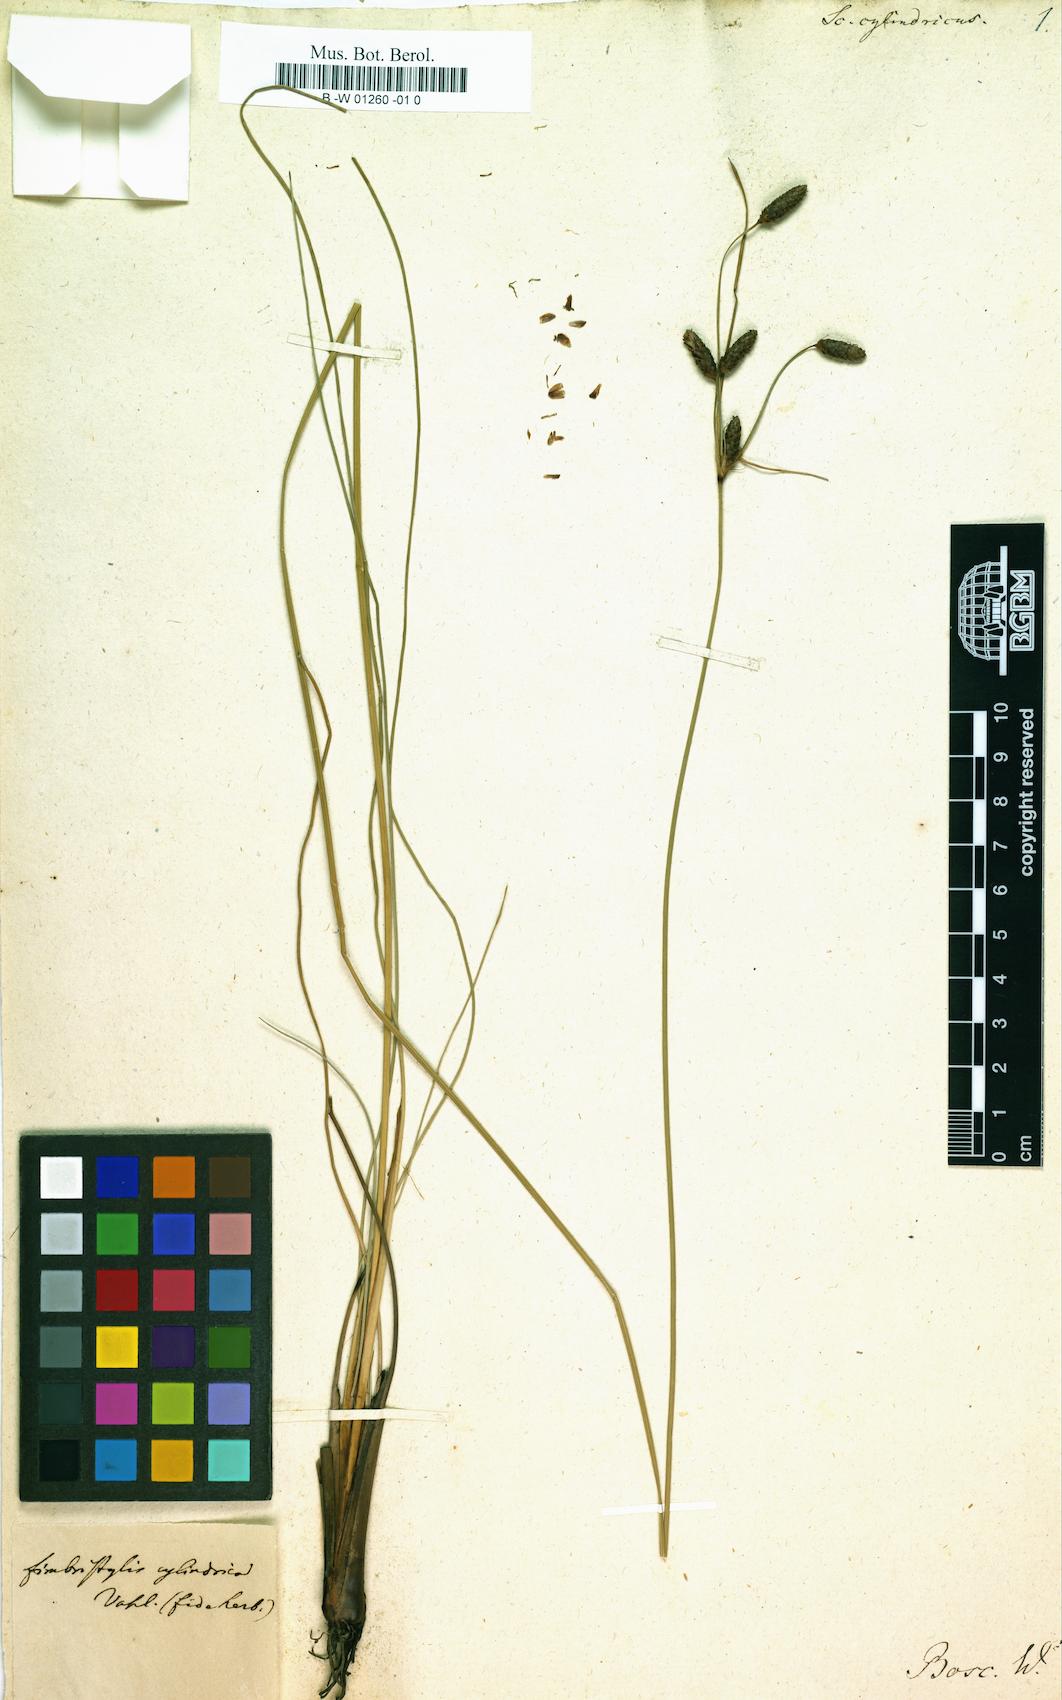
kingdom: Plantae
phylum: Tracheophyta
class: Liliopsida
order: Poales
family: Cyperaceae
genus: Schoenoplectus
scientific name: Schoenoplectus torreyi
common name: Torrey's bulrush
